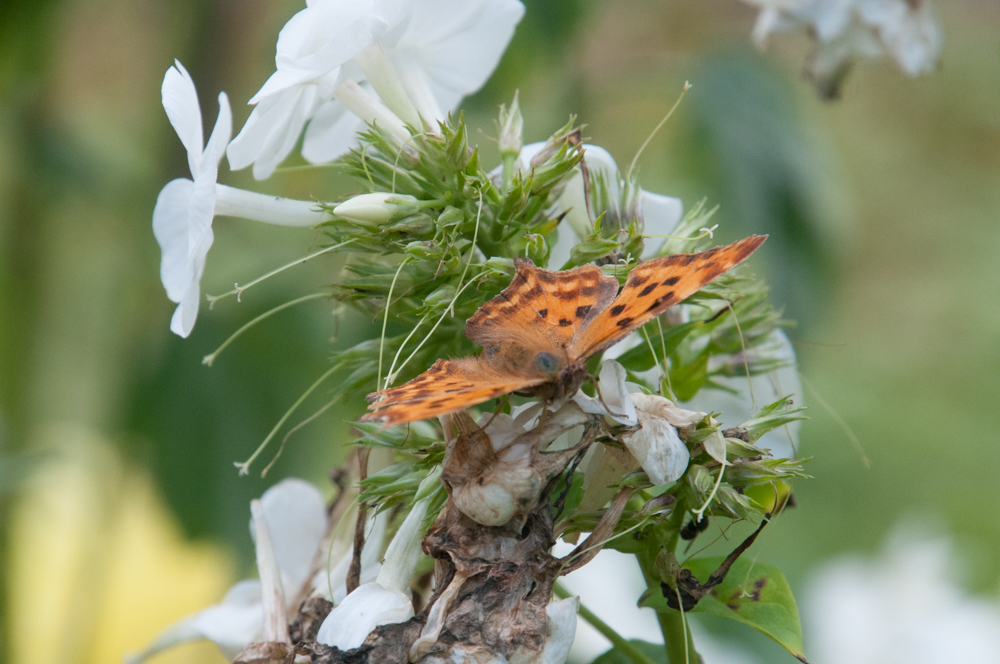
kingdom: Animalia
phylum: Arthropoda
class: Insecta
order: Lepidoptera
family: Nymphalidae
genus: Polygonia
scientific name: Polygonia c-album
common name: Comma
